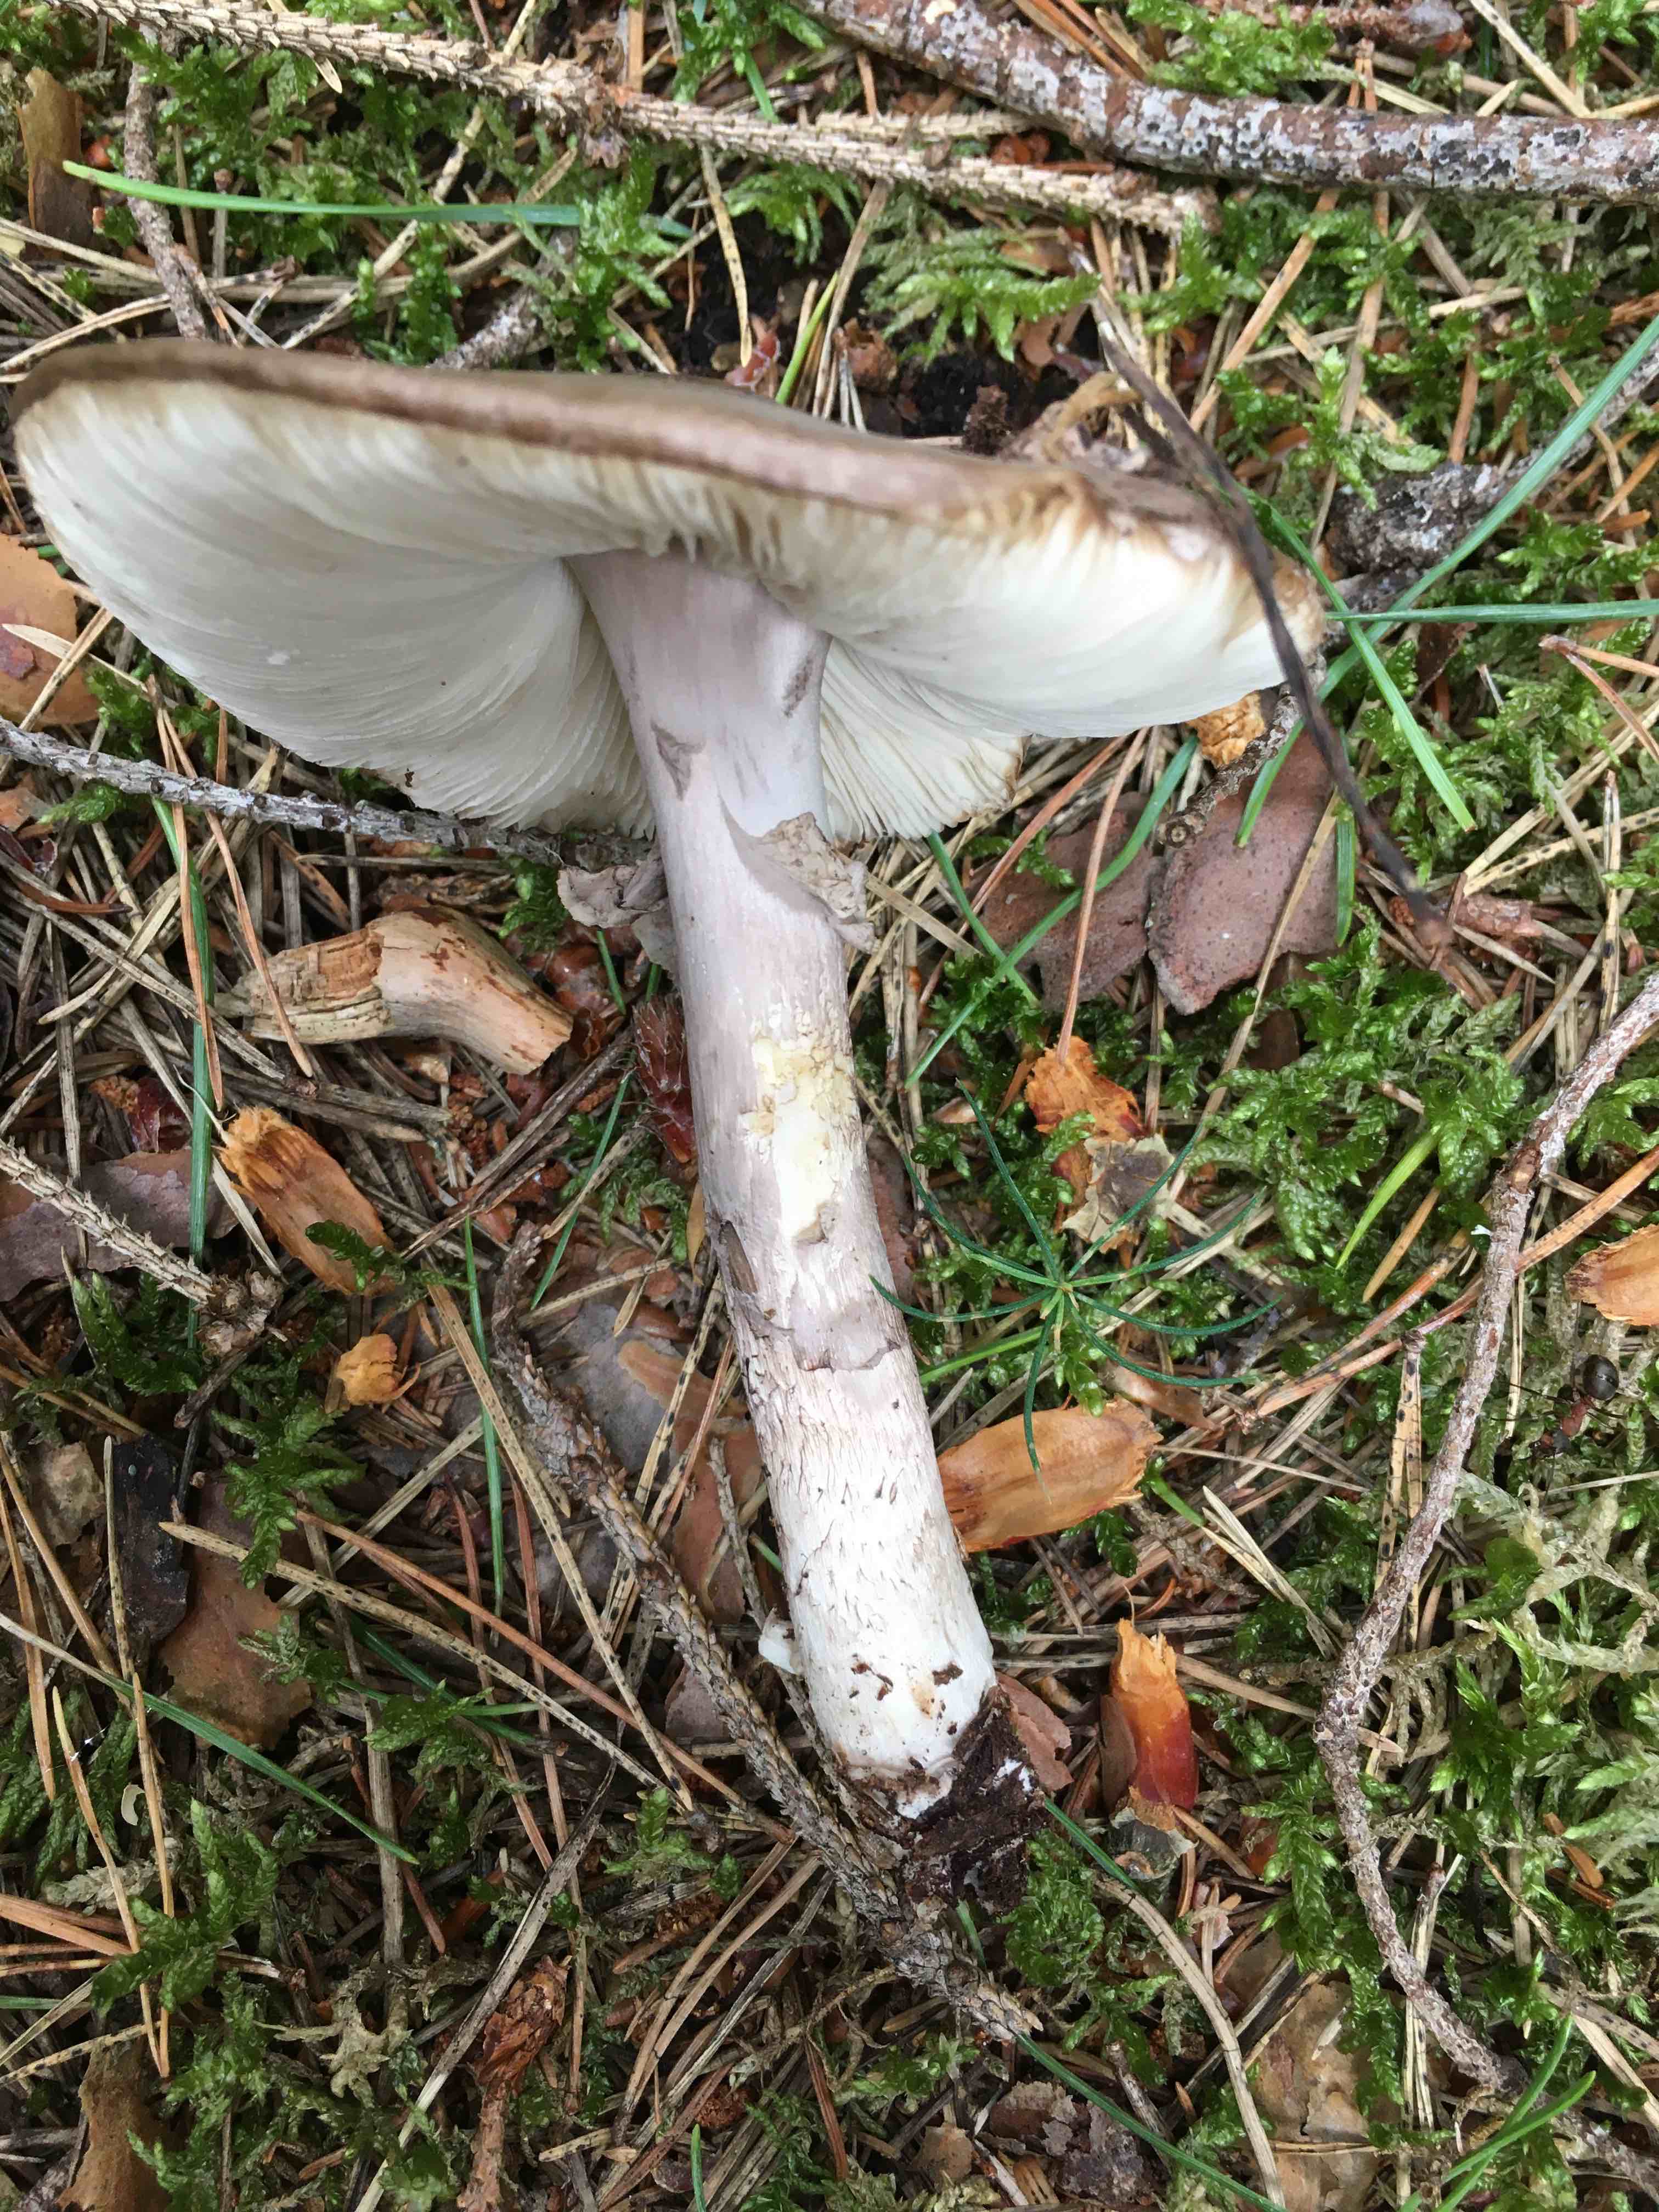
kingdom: Fungi
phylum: Basidiomycota
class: Agaricomycetes
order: Agaricales
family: Amanitaceae
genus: Amanita
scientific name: Amanita porphyria
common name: porfyr-fluesvamp
